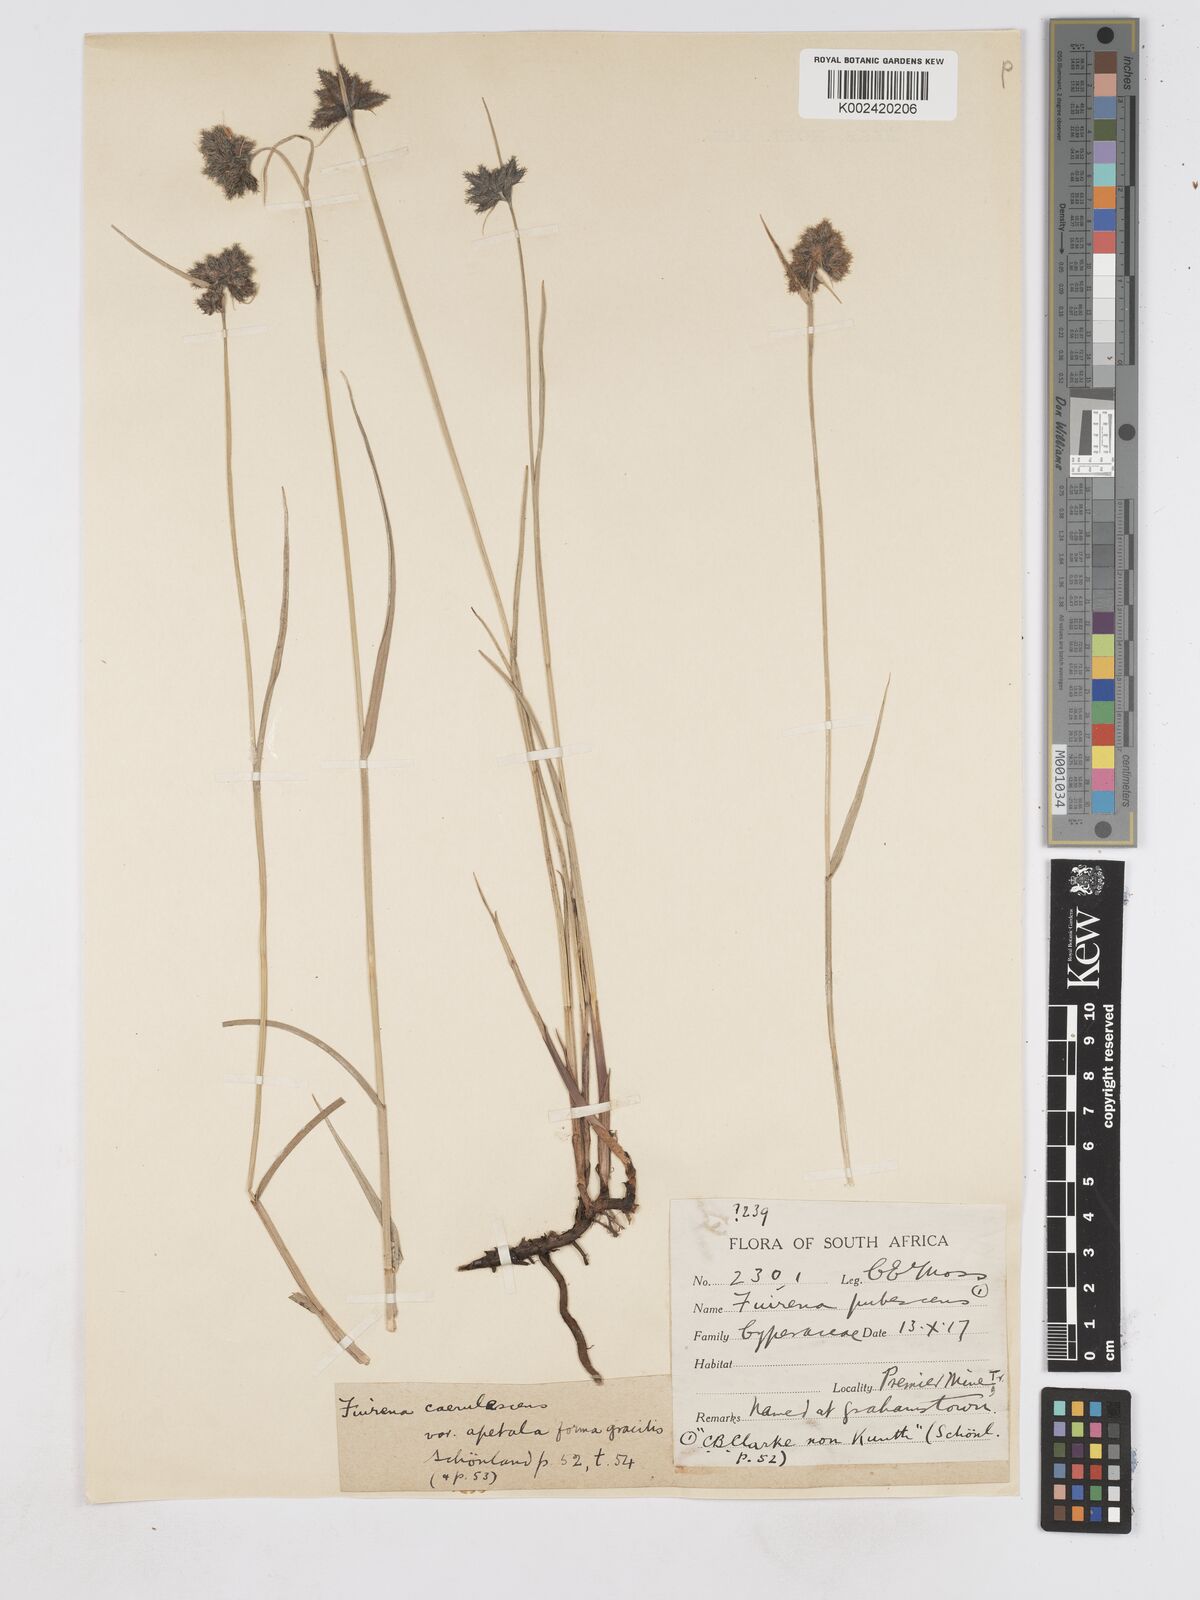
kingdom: Plantae
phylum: Tracheophyta
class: Liliopsida
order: Poales
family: Cyperaceae
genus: Fuirena
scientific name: Fuirena coerulescens
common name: Blue umbrella-sedge
